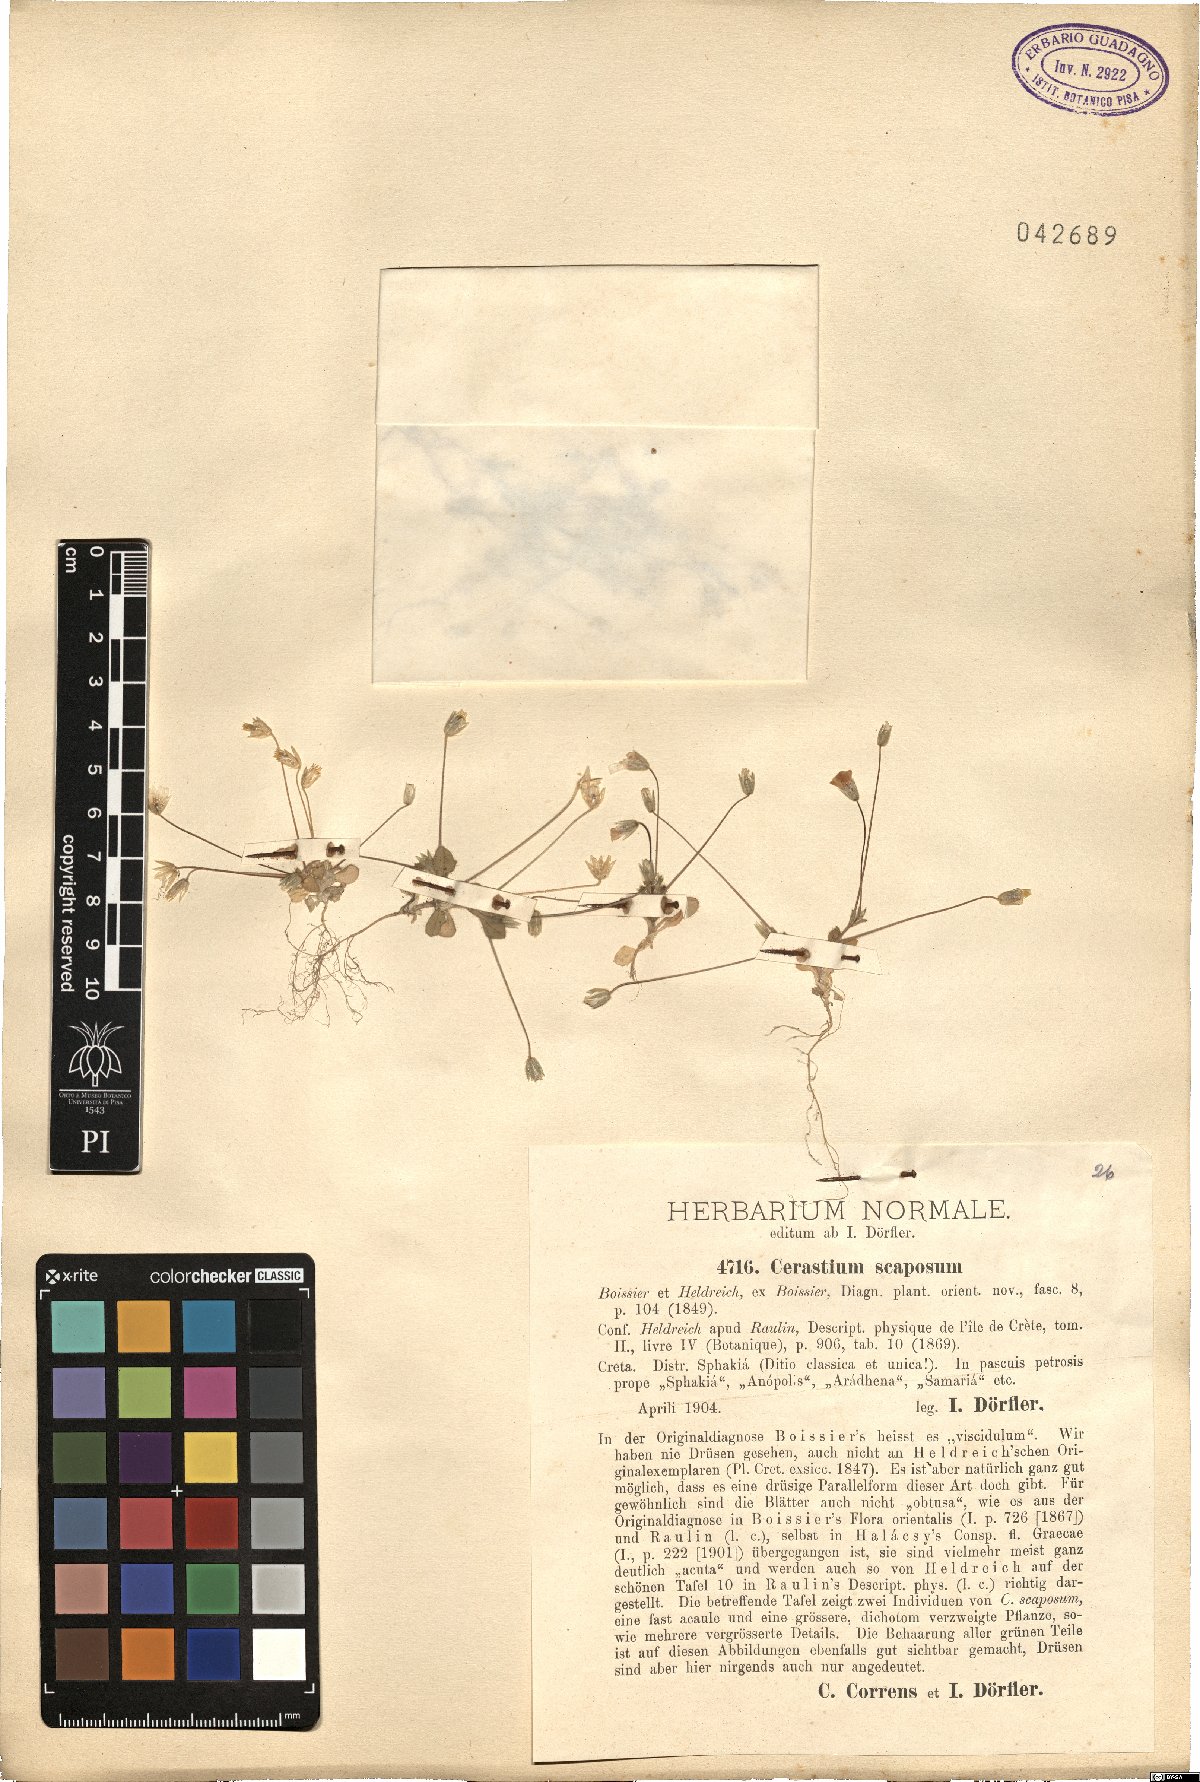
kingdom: Plantae
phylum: Tracheophyta
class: Magnoliopsida
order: Caryophyllales
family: Caryophyllaceae
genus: Cerastium
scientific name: Cerastium scaposum
